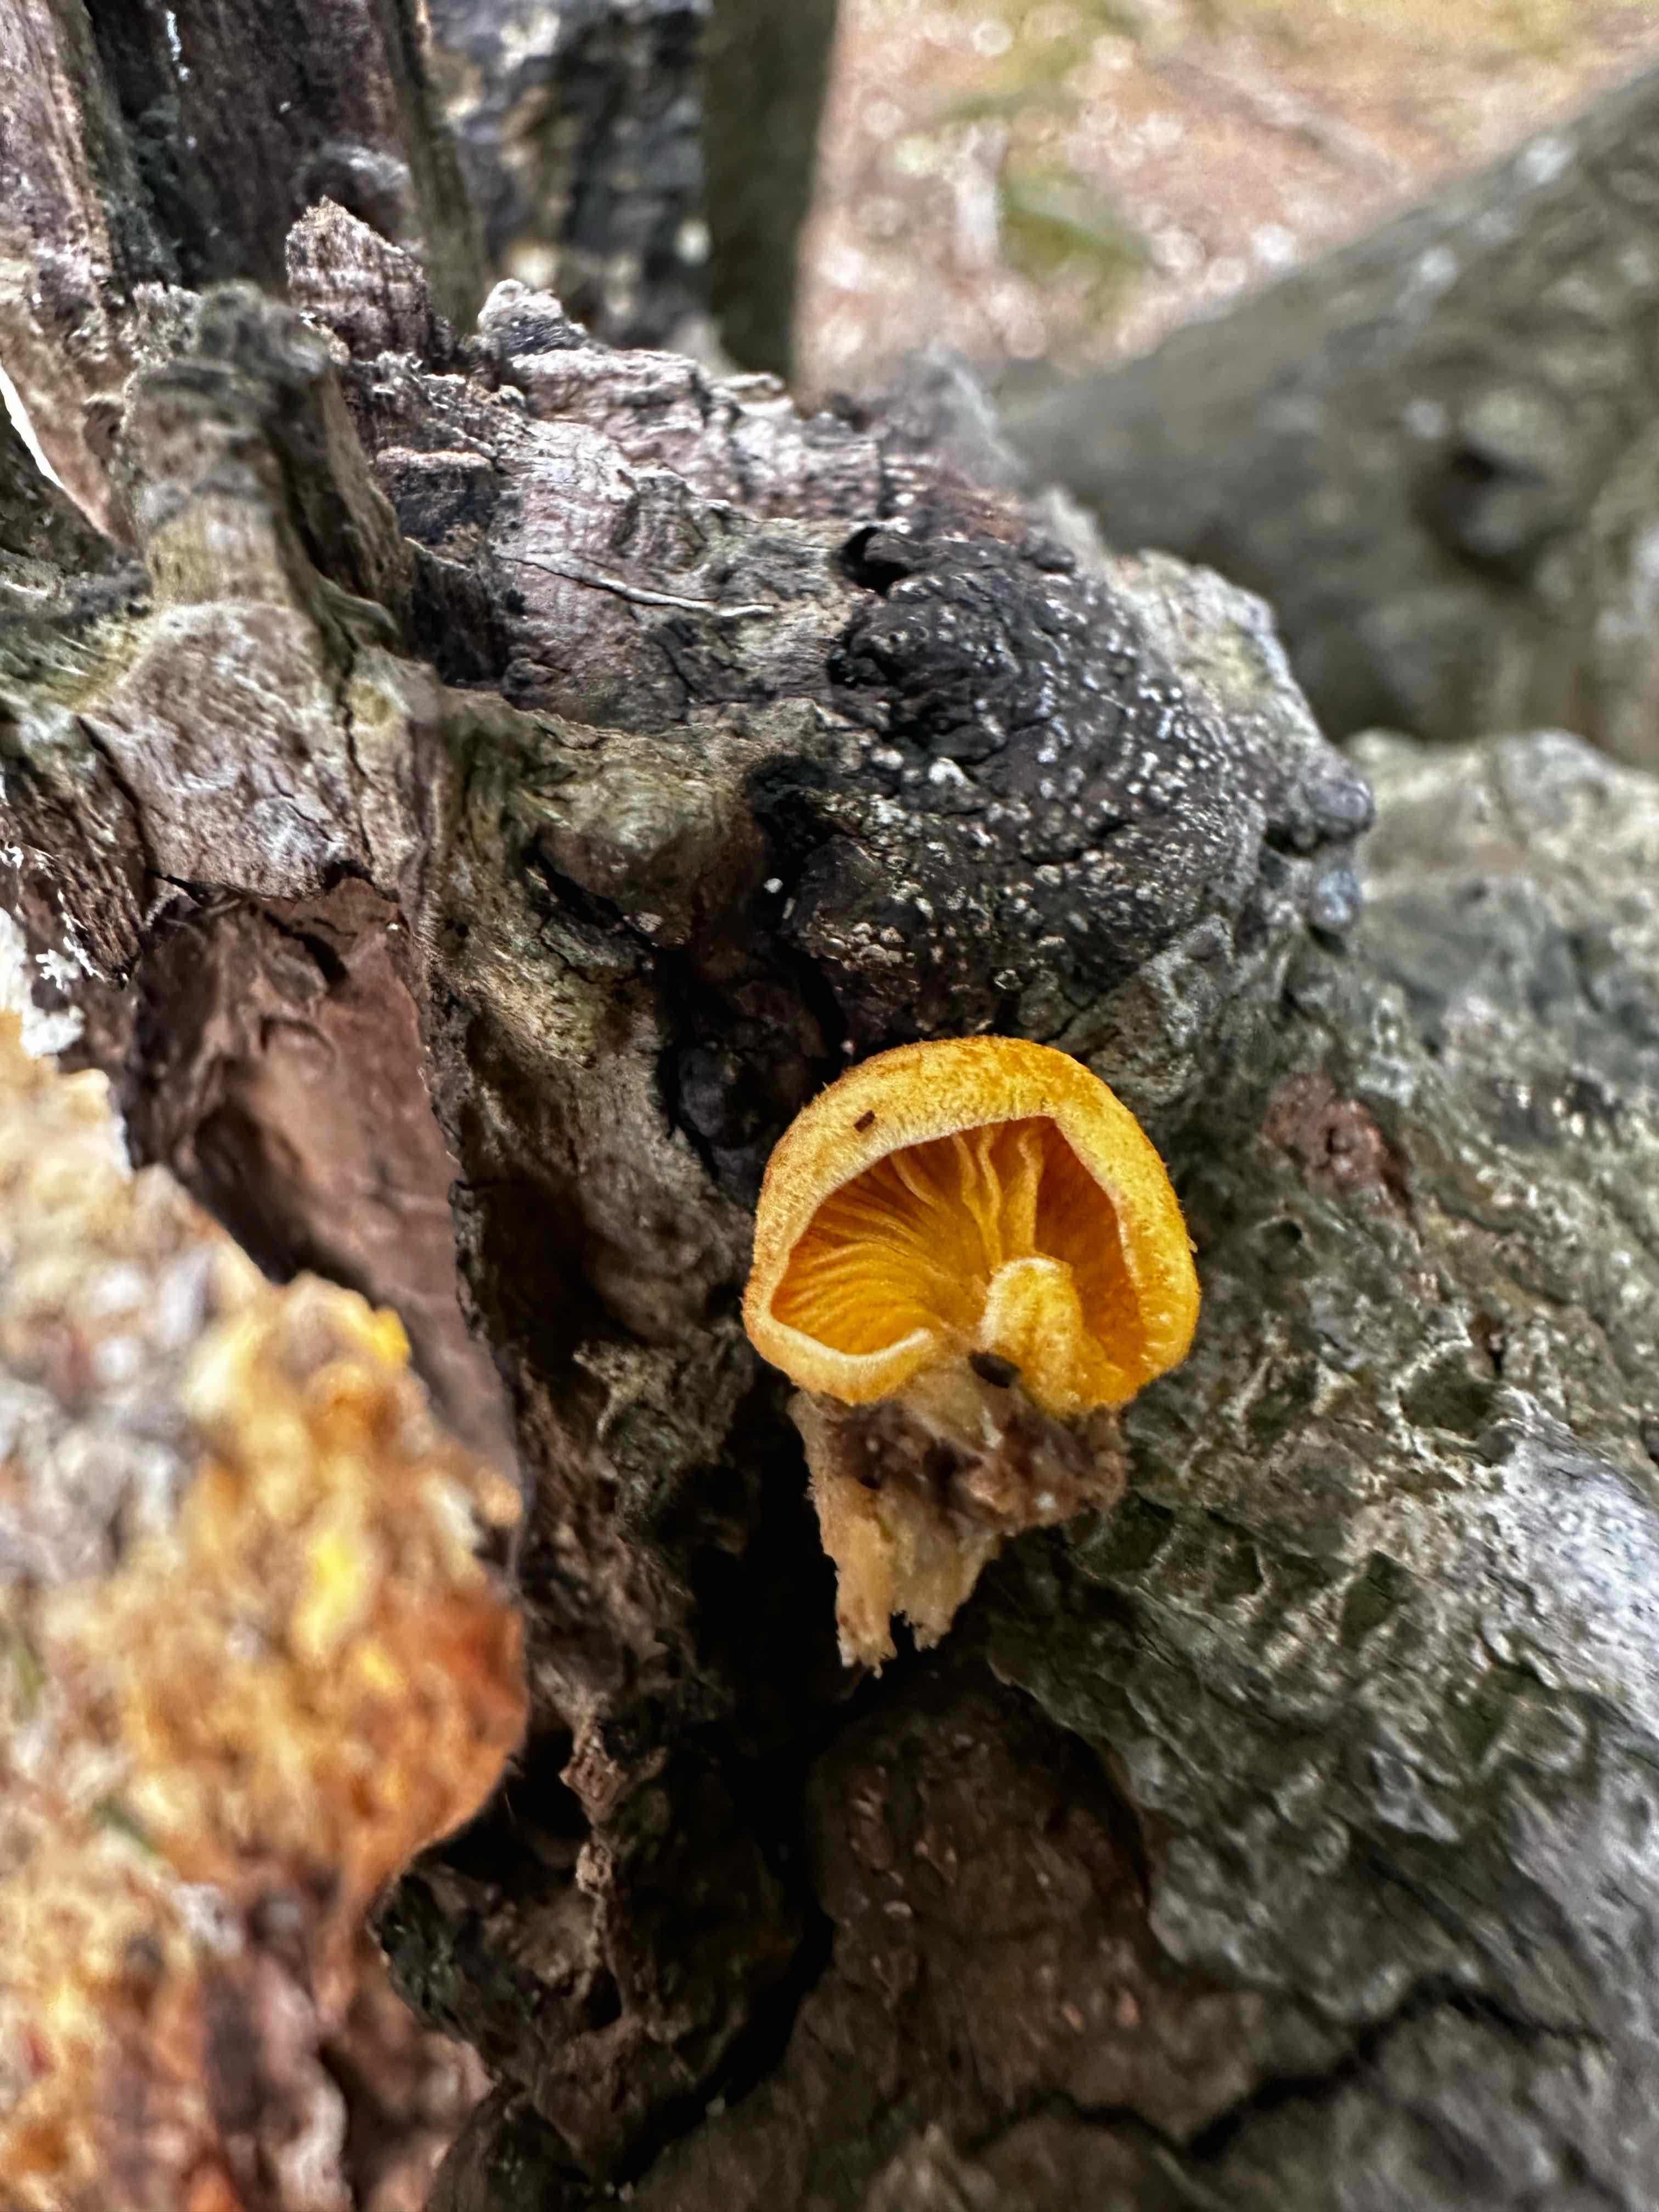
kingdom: Fungi
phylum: Basidiomycota
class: Agaricomycetes
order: Agaricales
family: Phyllotopsidaceae
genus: Phyllotopsis
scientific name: Phyllotopsis nidulans
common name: okkerblad
